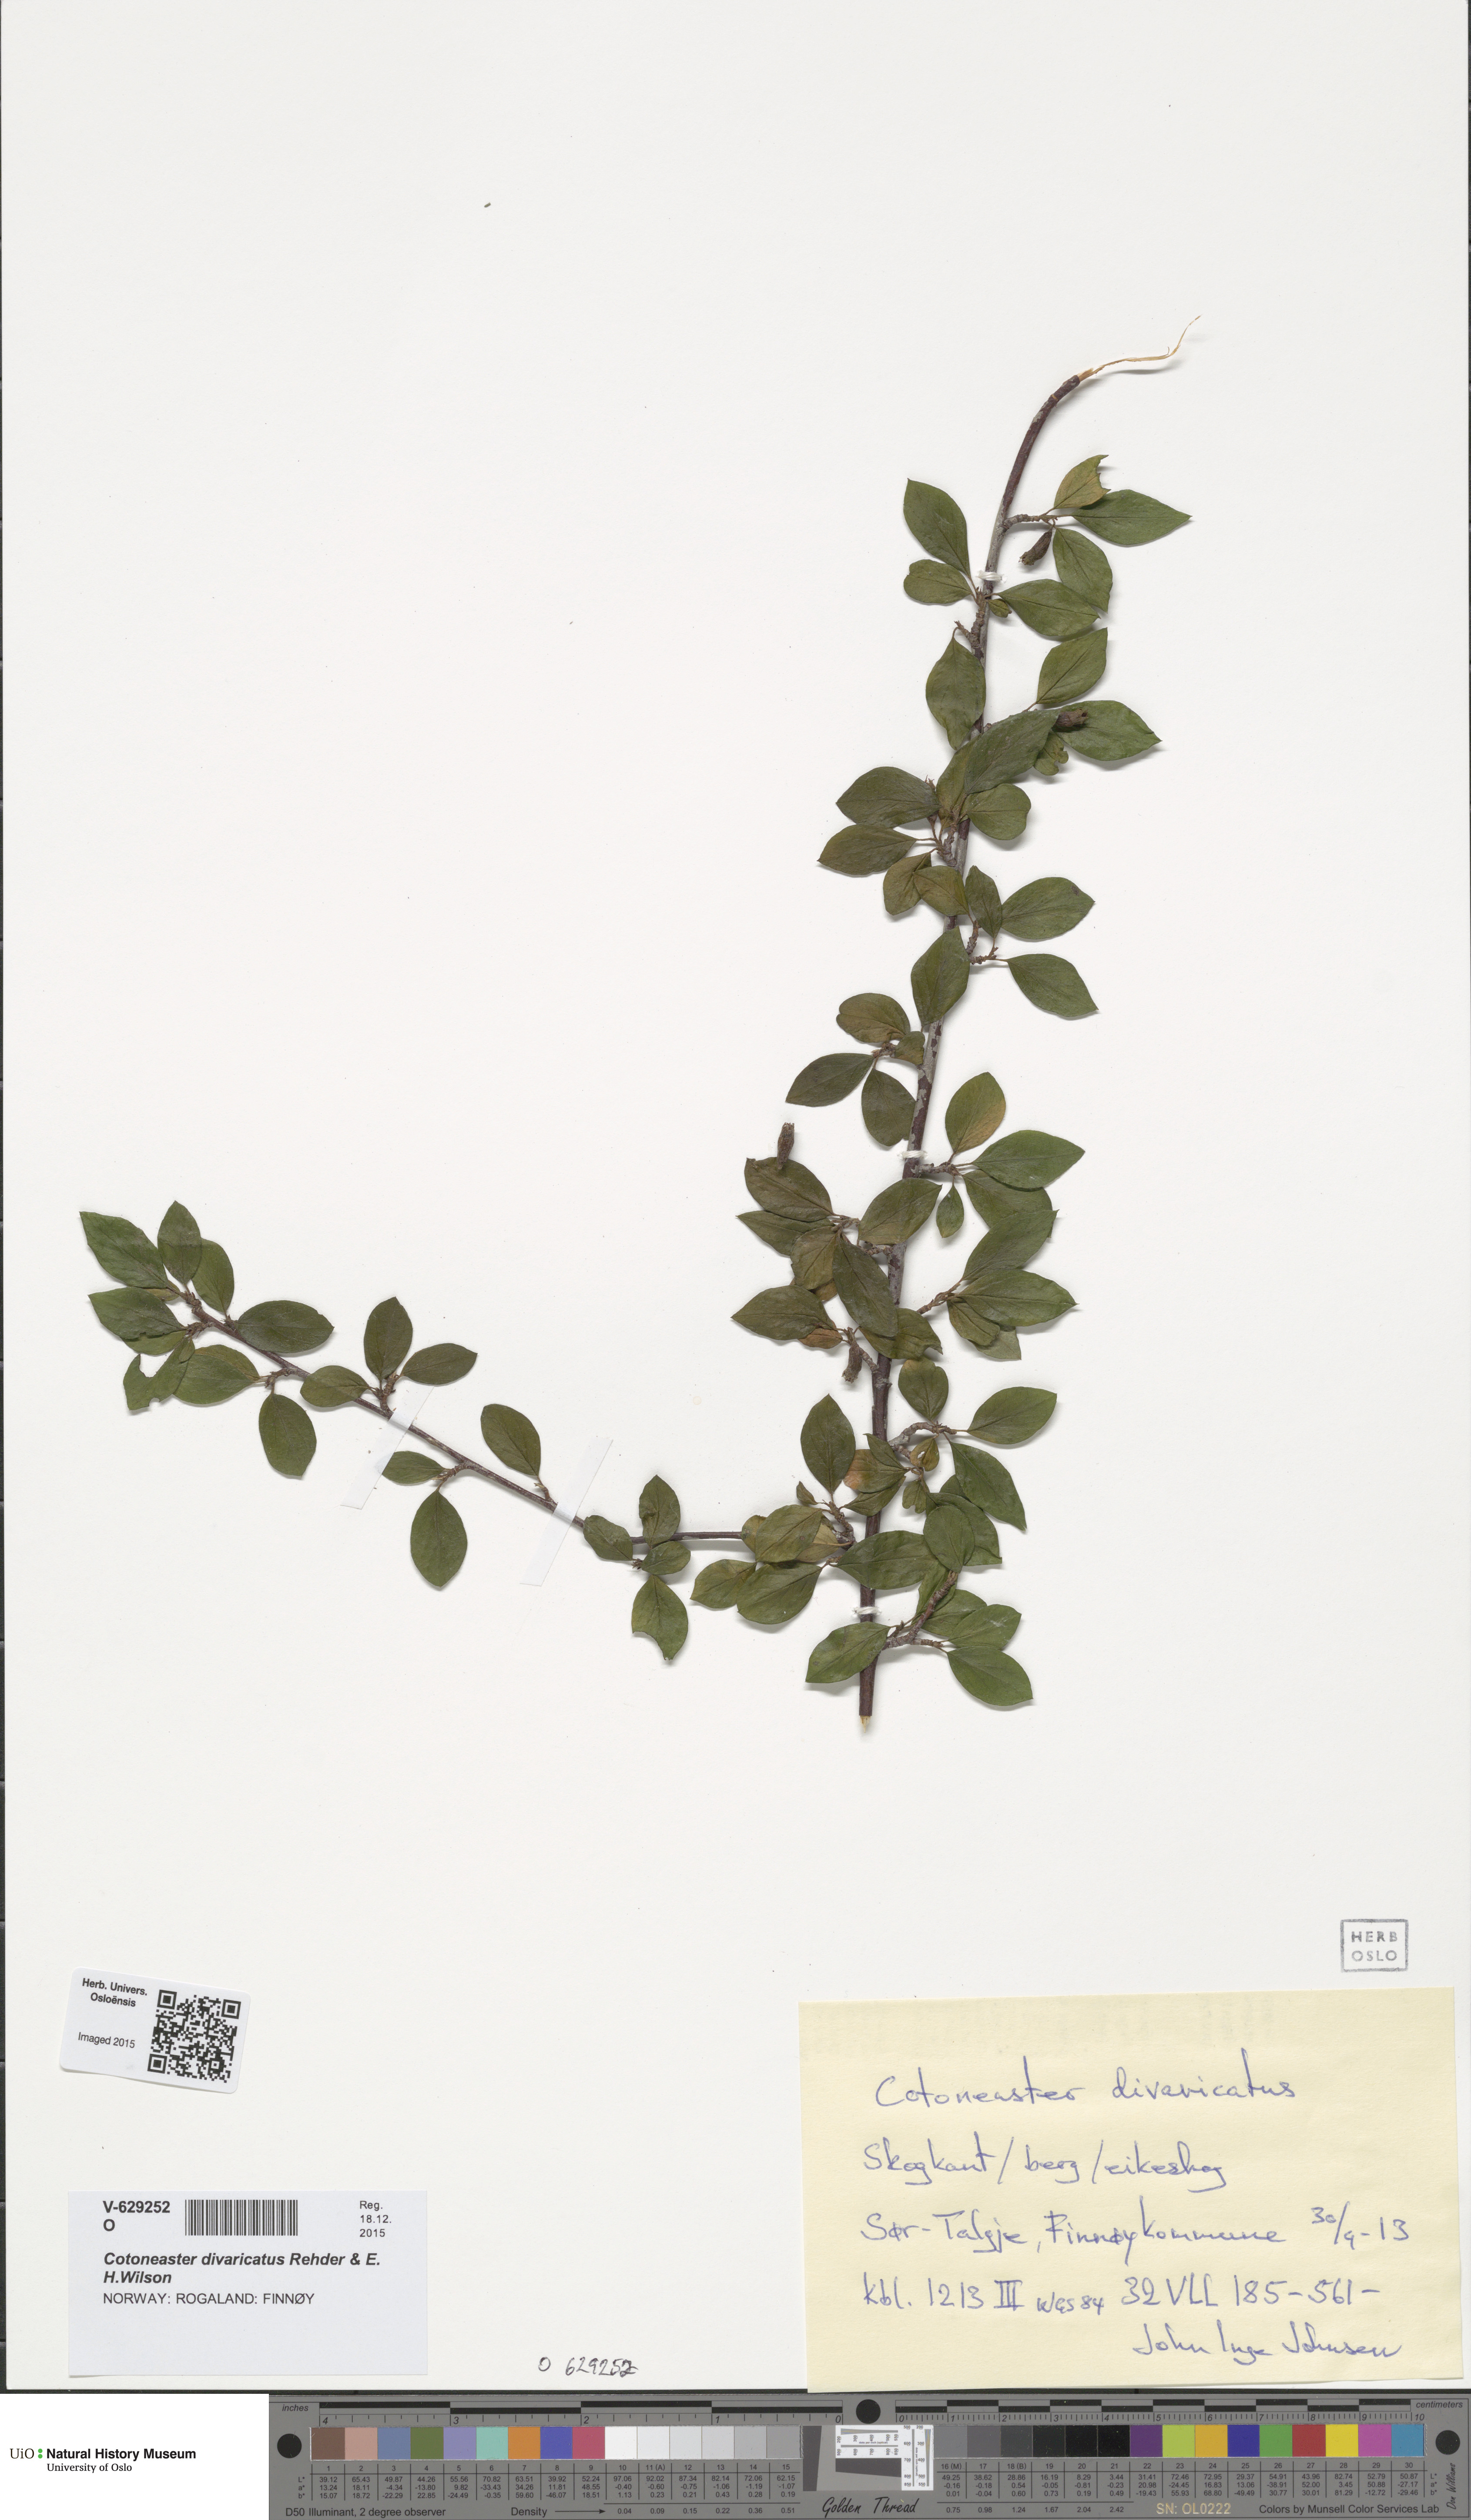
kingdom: Plantae
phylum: Tracheophyta
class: Magnoliopsida
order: Rosales
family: Rosaceae
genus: Cotoneaster
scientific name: Cotoneaster divaricatus
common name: Spreading cotoneaster
